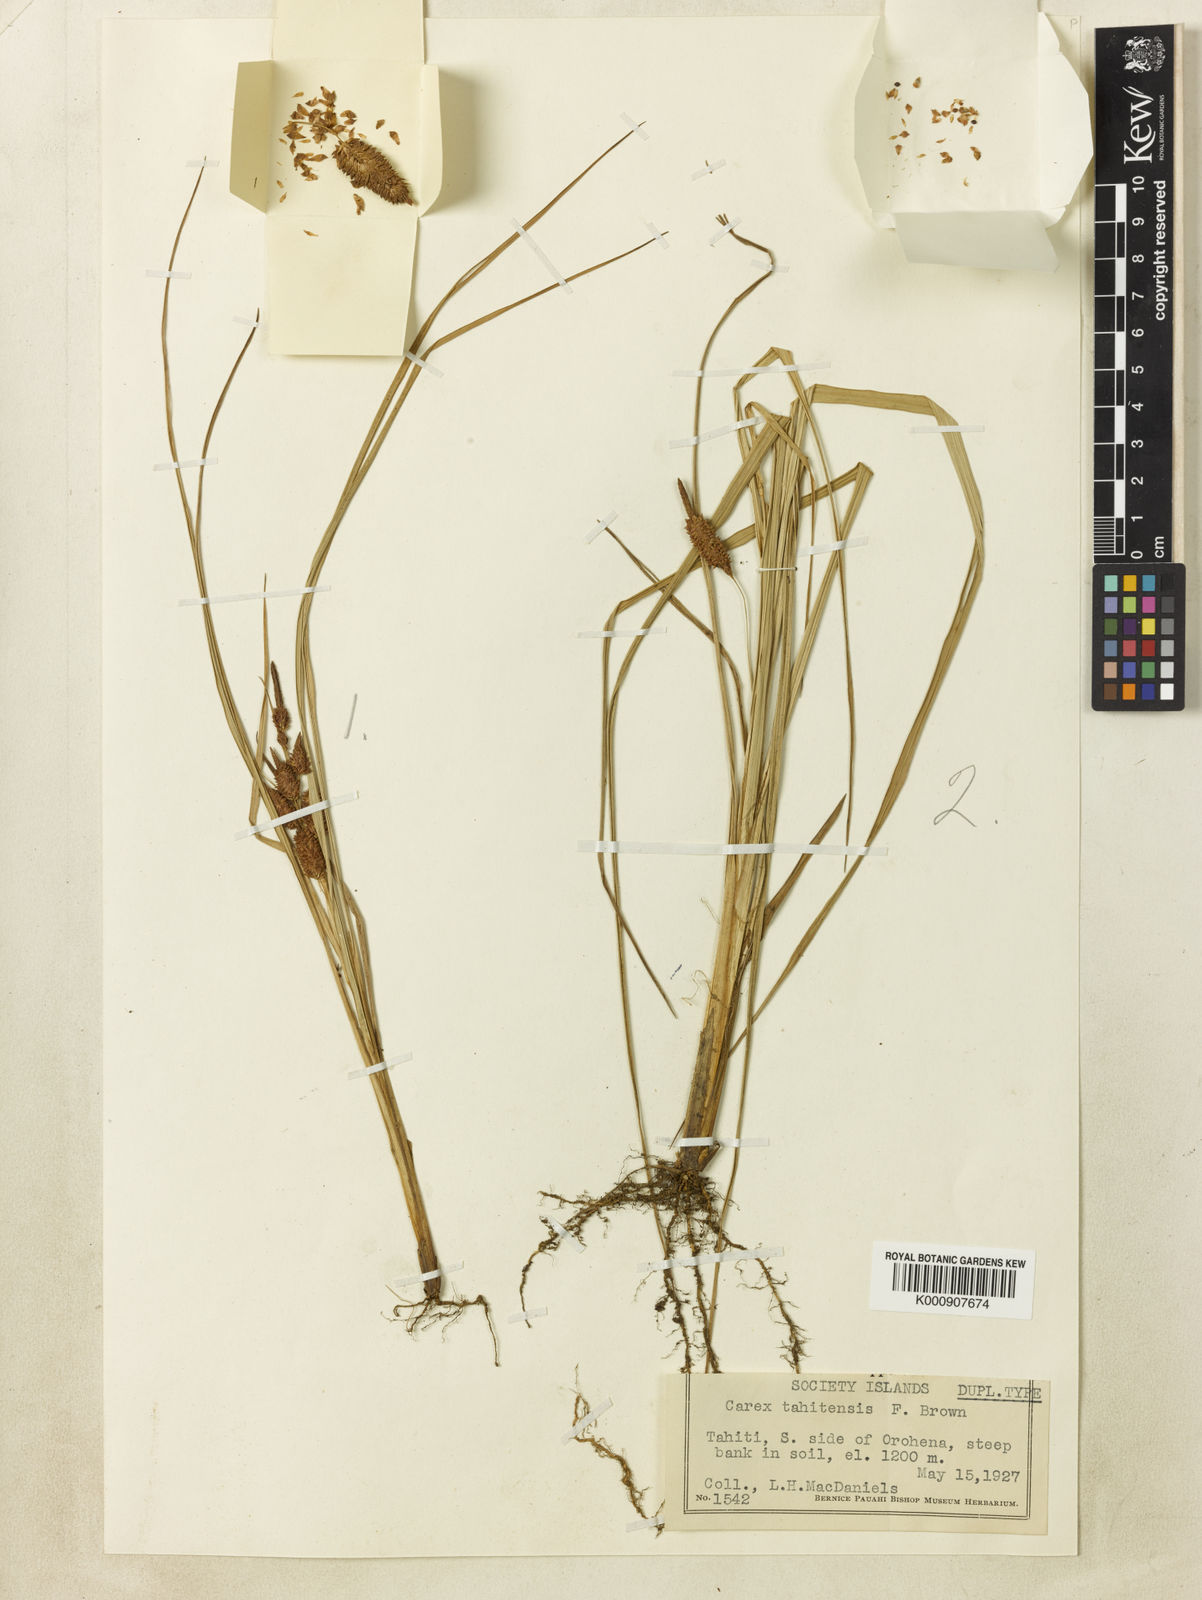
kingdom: Plantae
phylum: Tracheophyta
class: Liliopsida
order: Poales
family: Cyperaceae
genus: Carex
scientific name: Carex tahitensis
